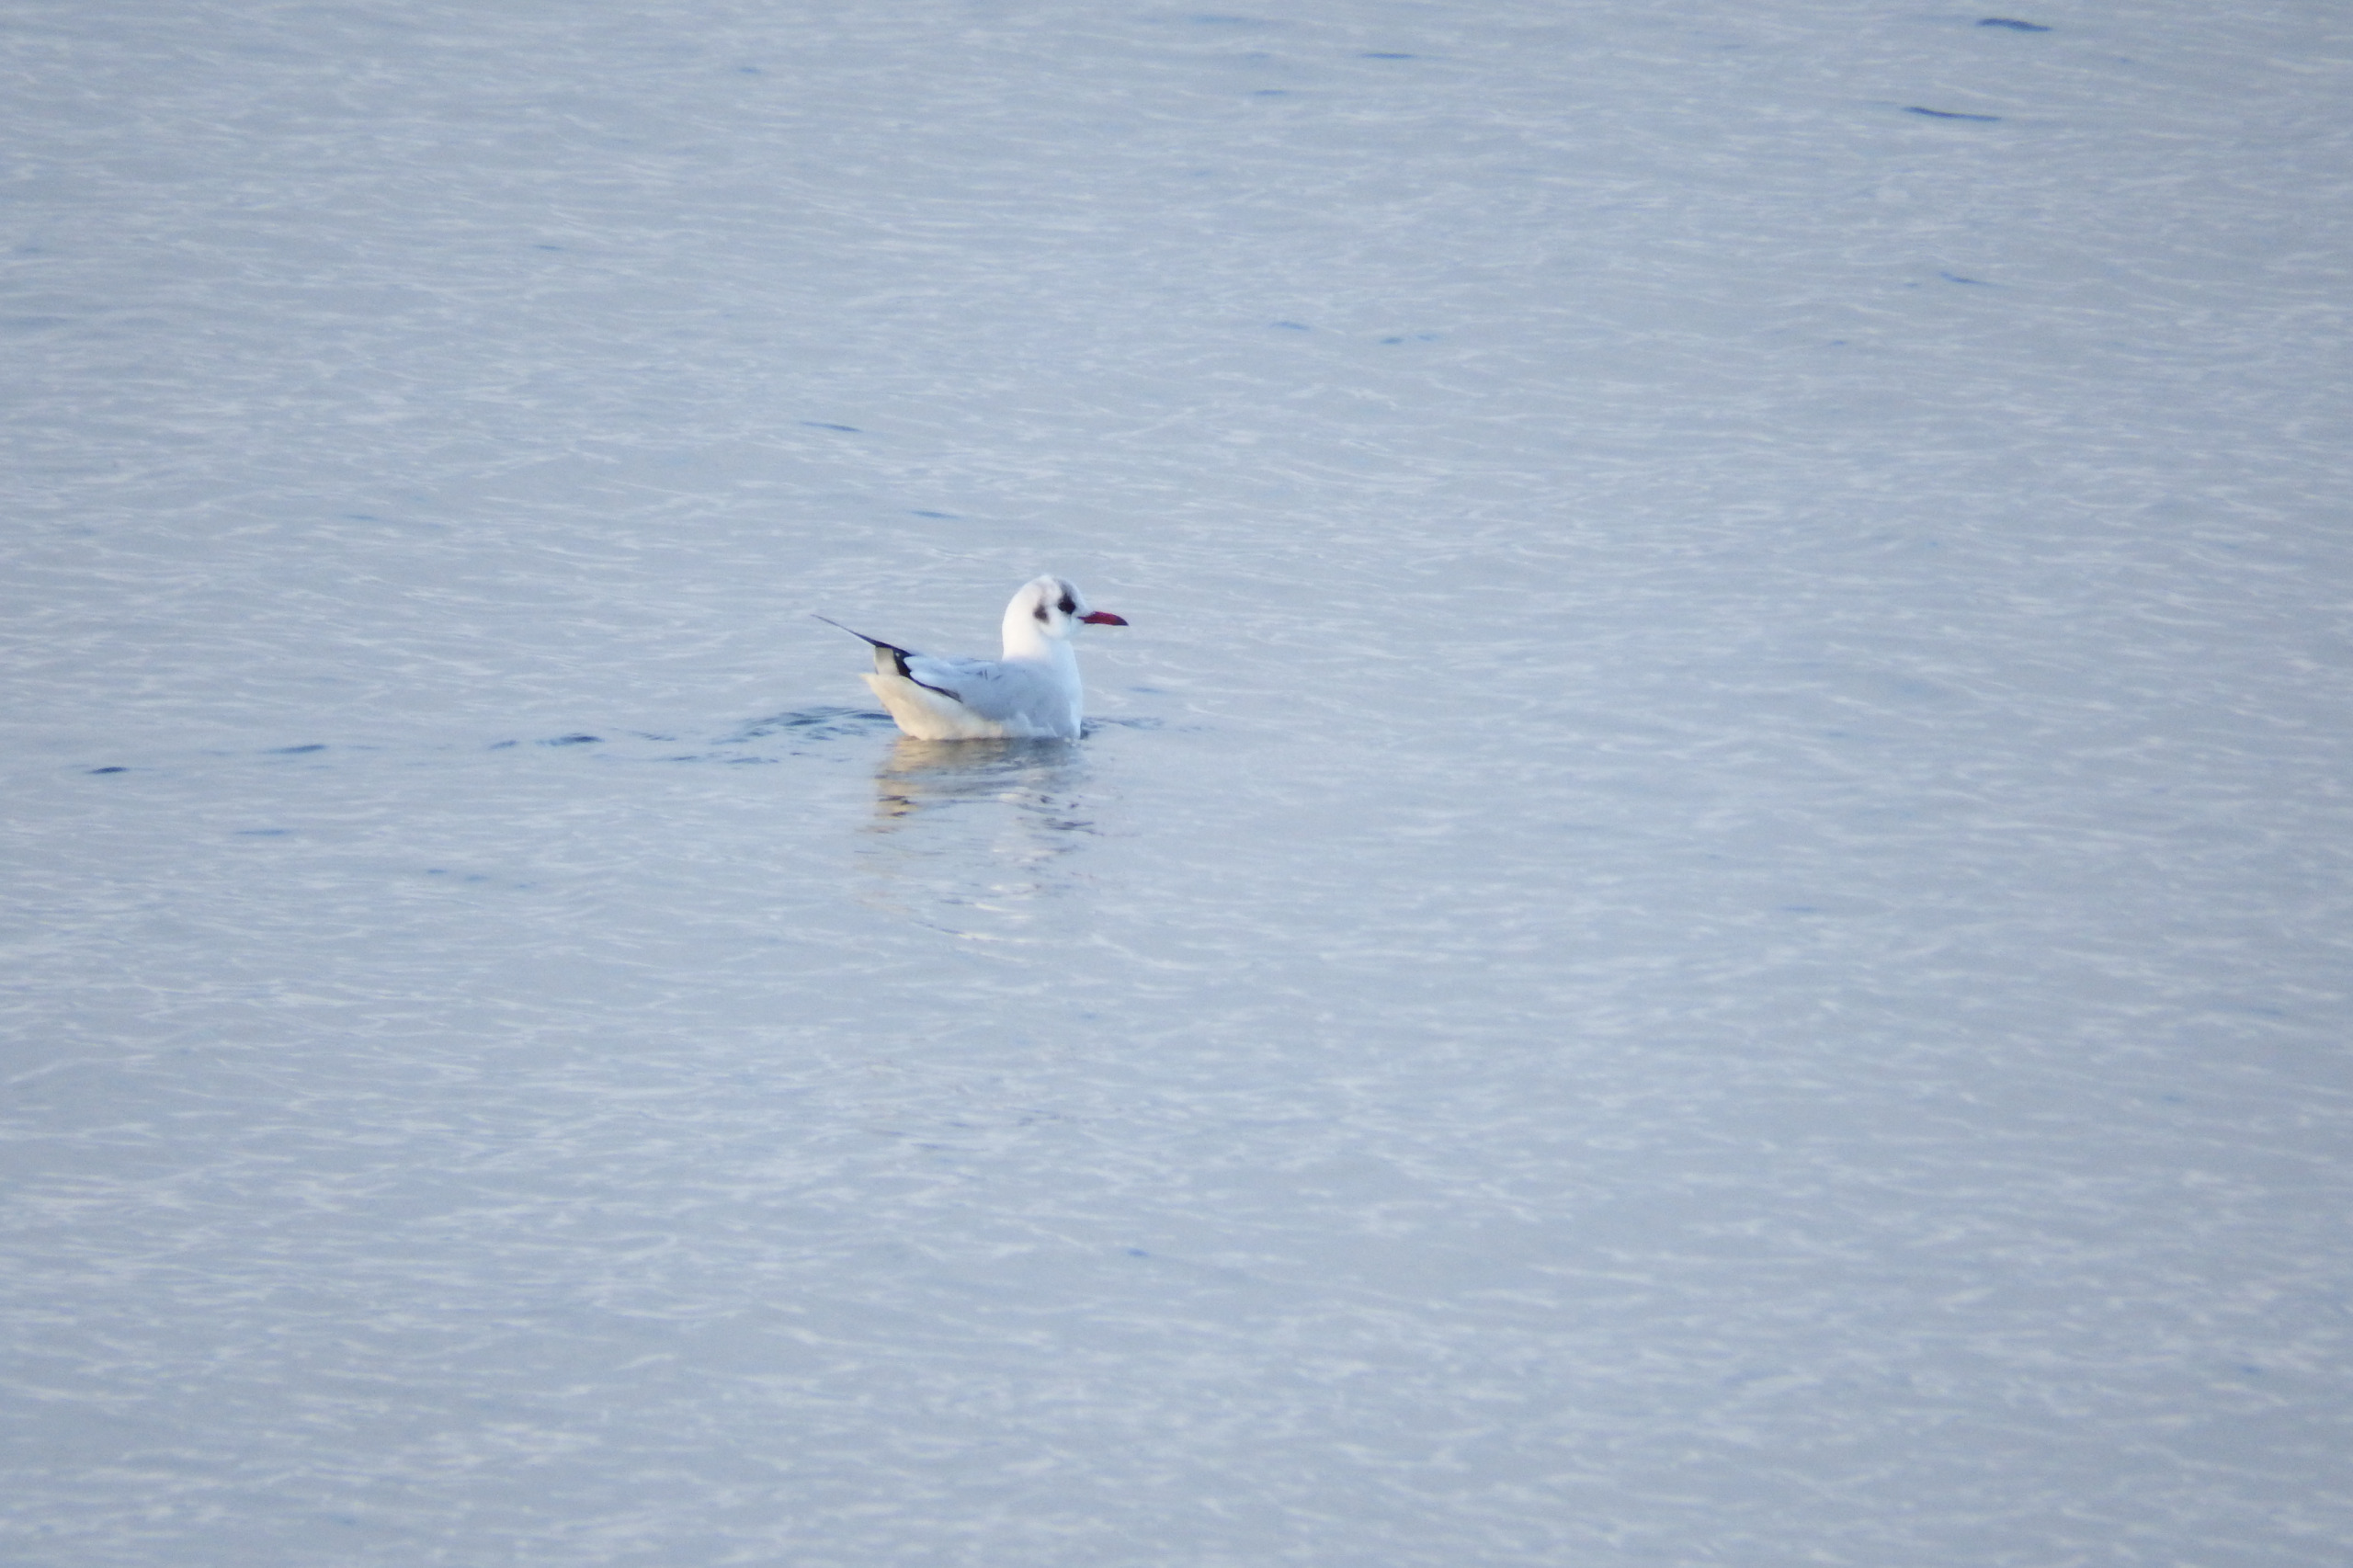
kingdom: Animalia
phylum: Chordata
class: Aves
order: Charadriiformes
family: Laridae
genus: Chroicocephalus
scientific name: Chroicocephalus ridibundus
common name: Hættemåge
